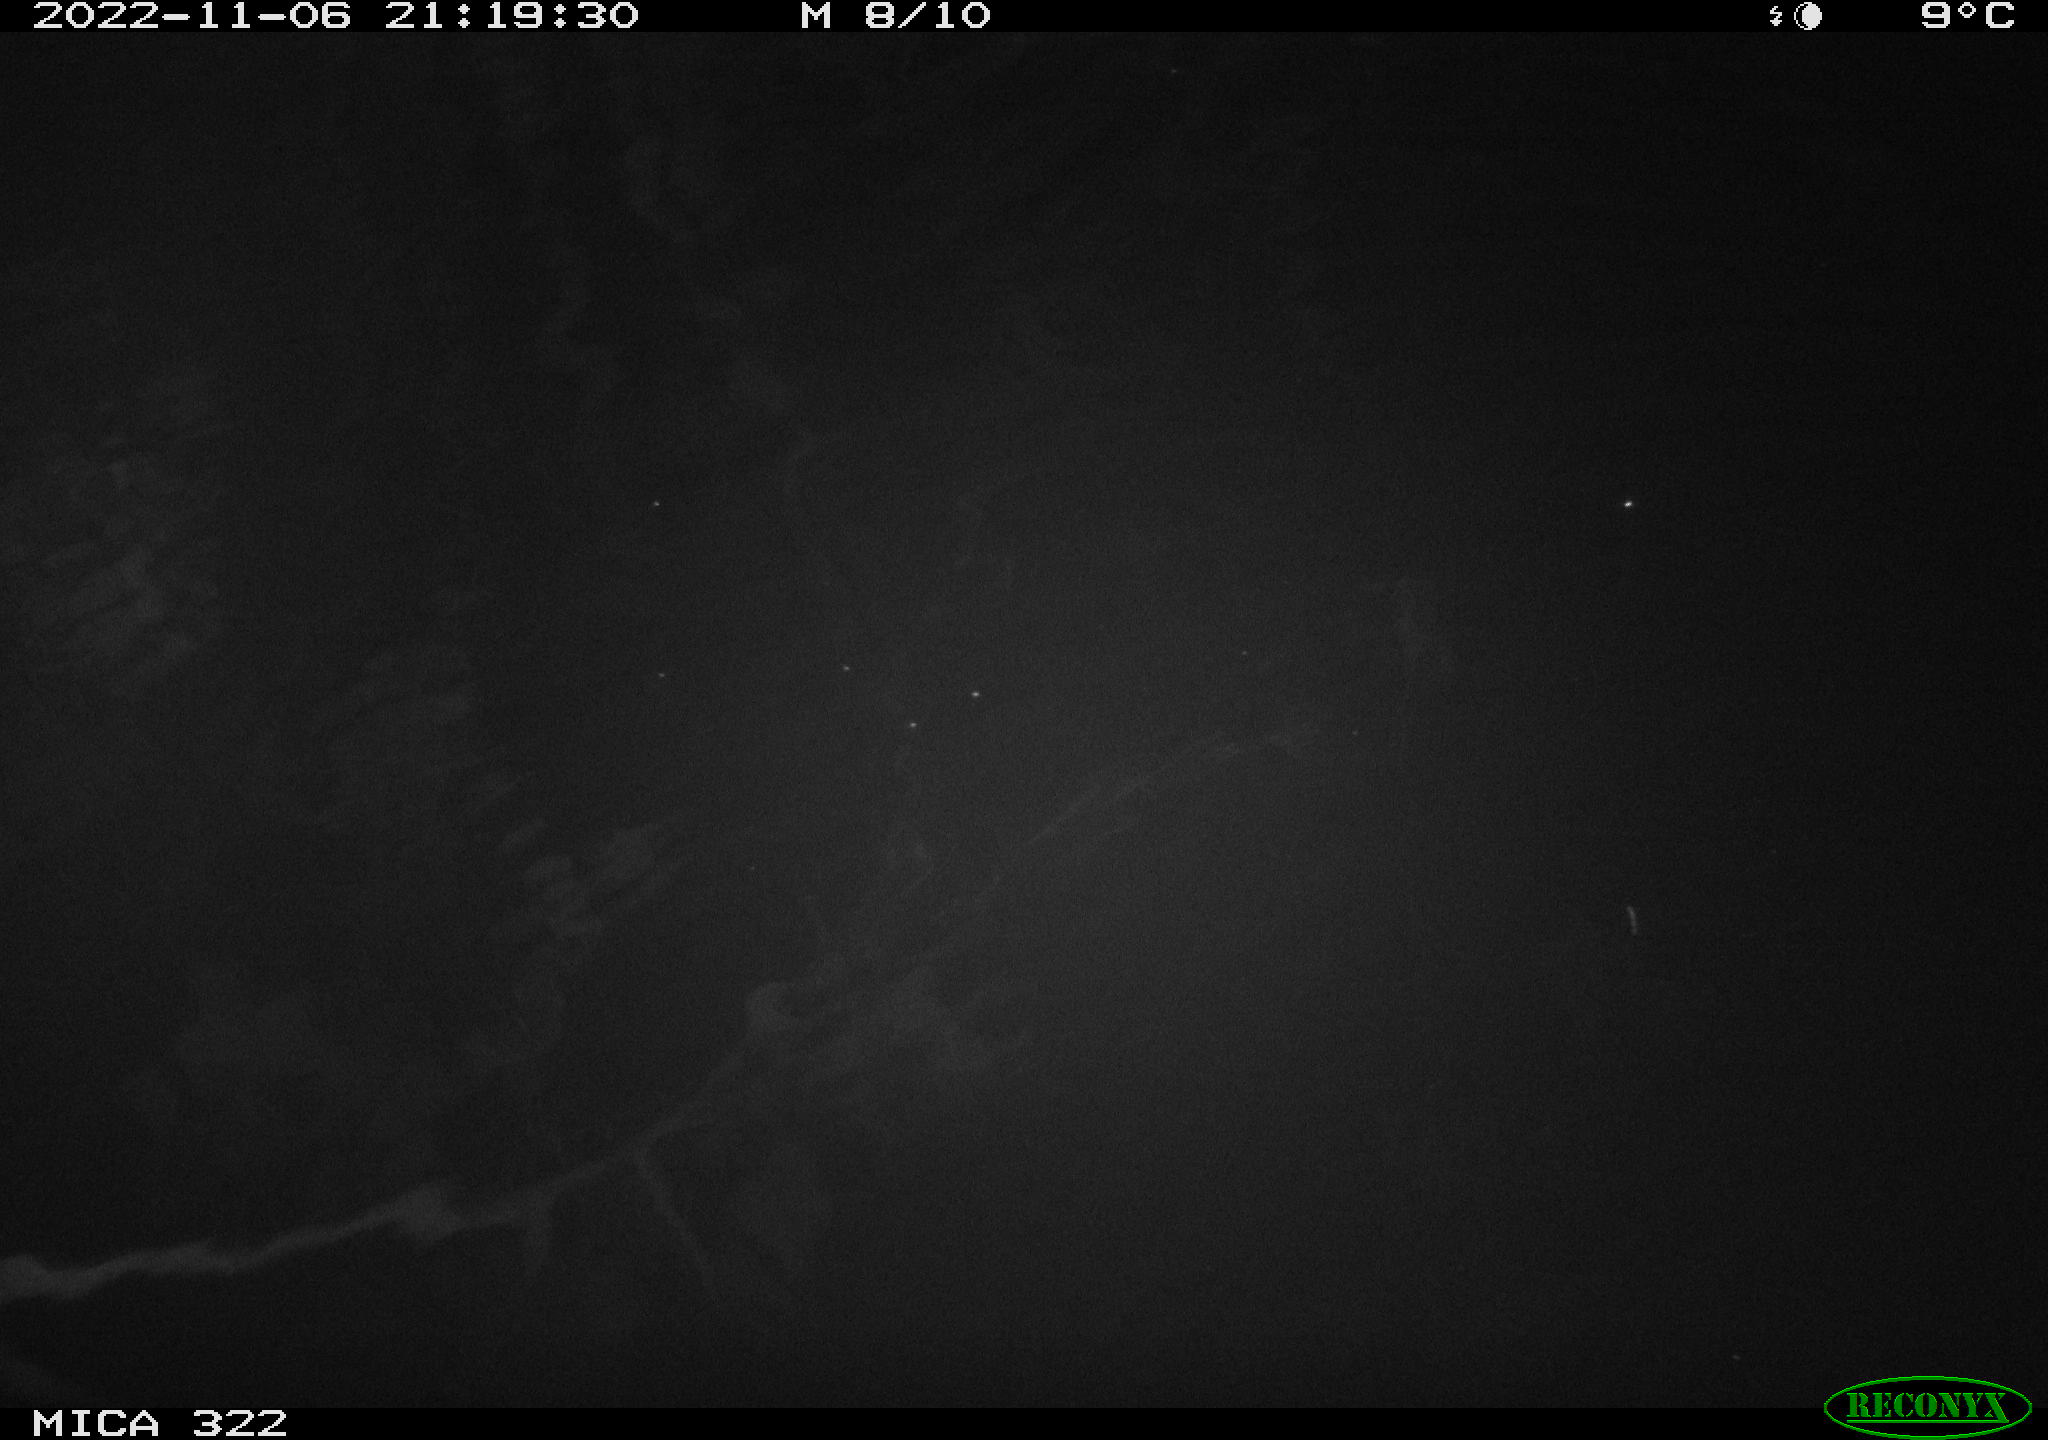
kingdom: Animalia
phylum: Chordata
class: Mammalia
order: Rodentia
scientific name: Rodentia
